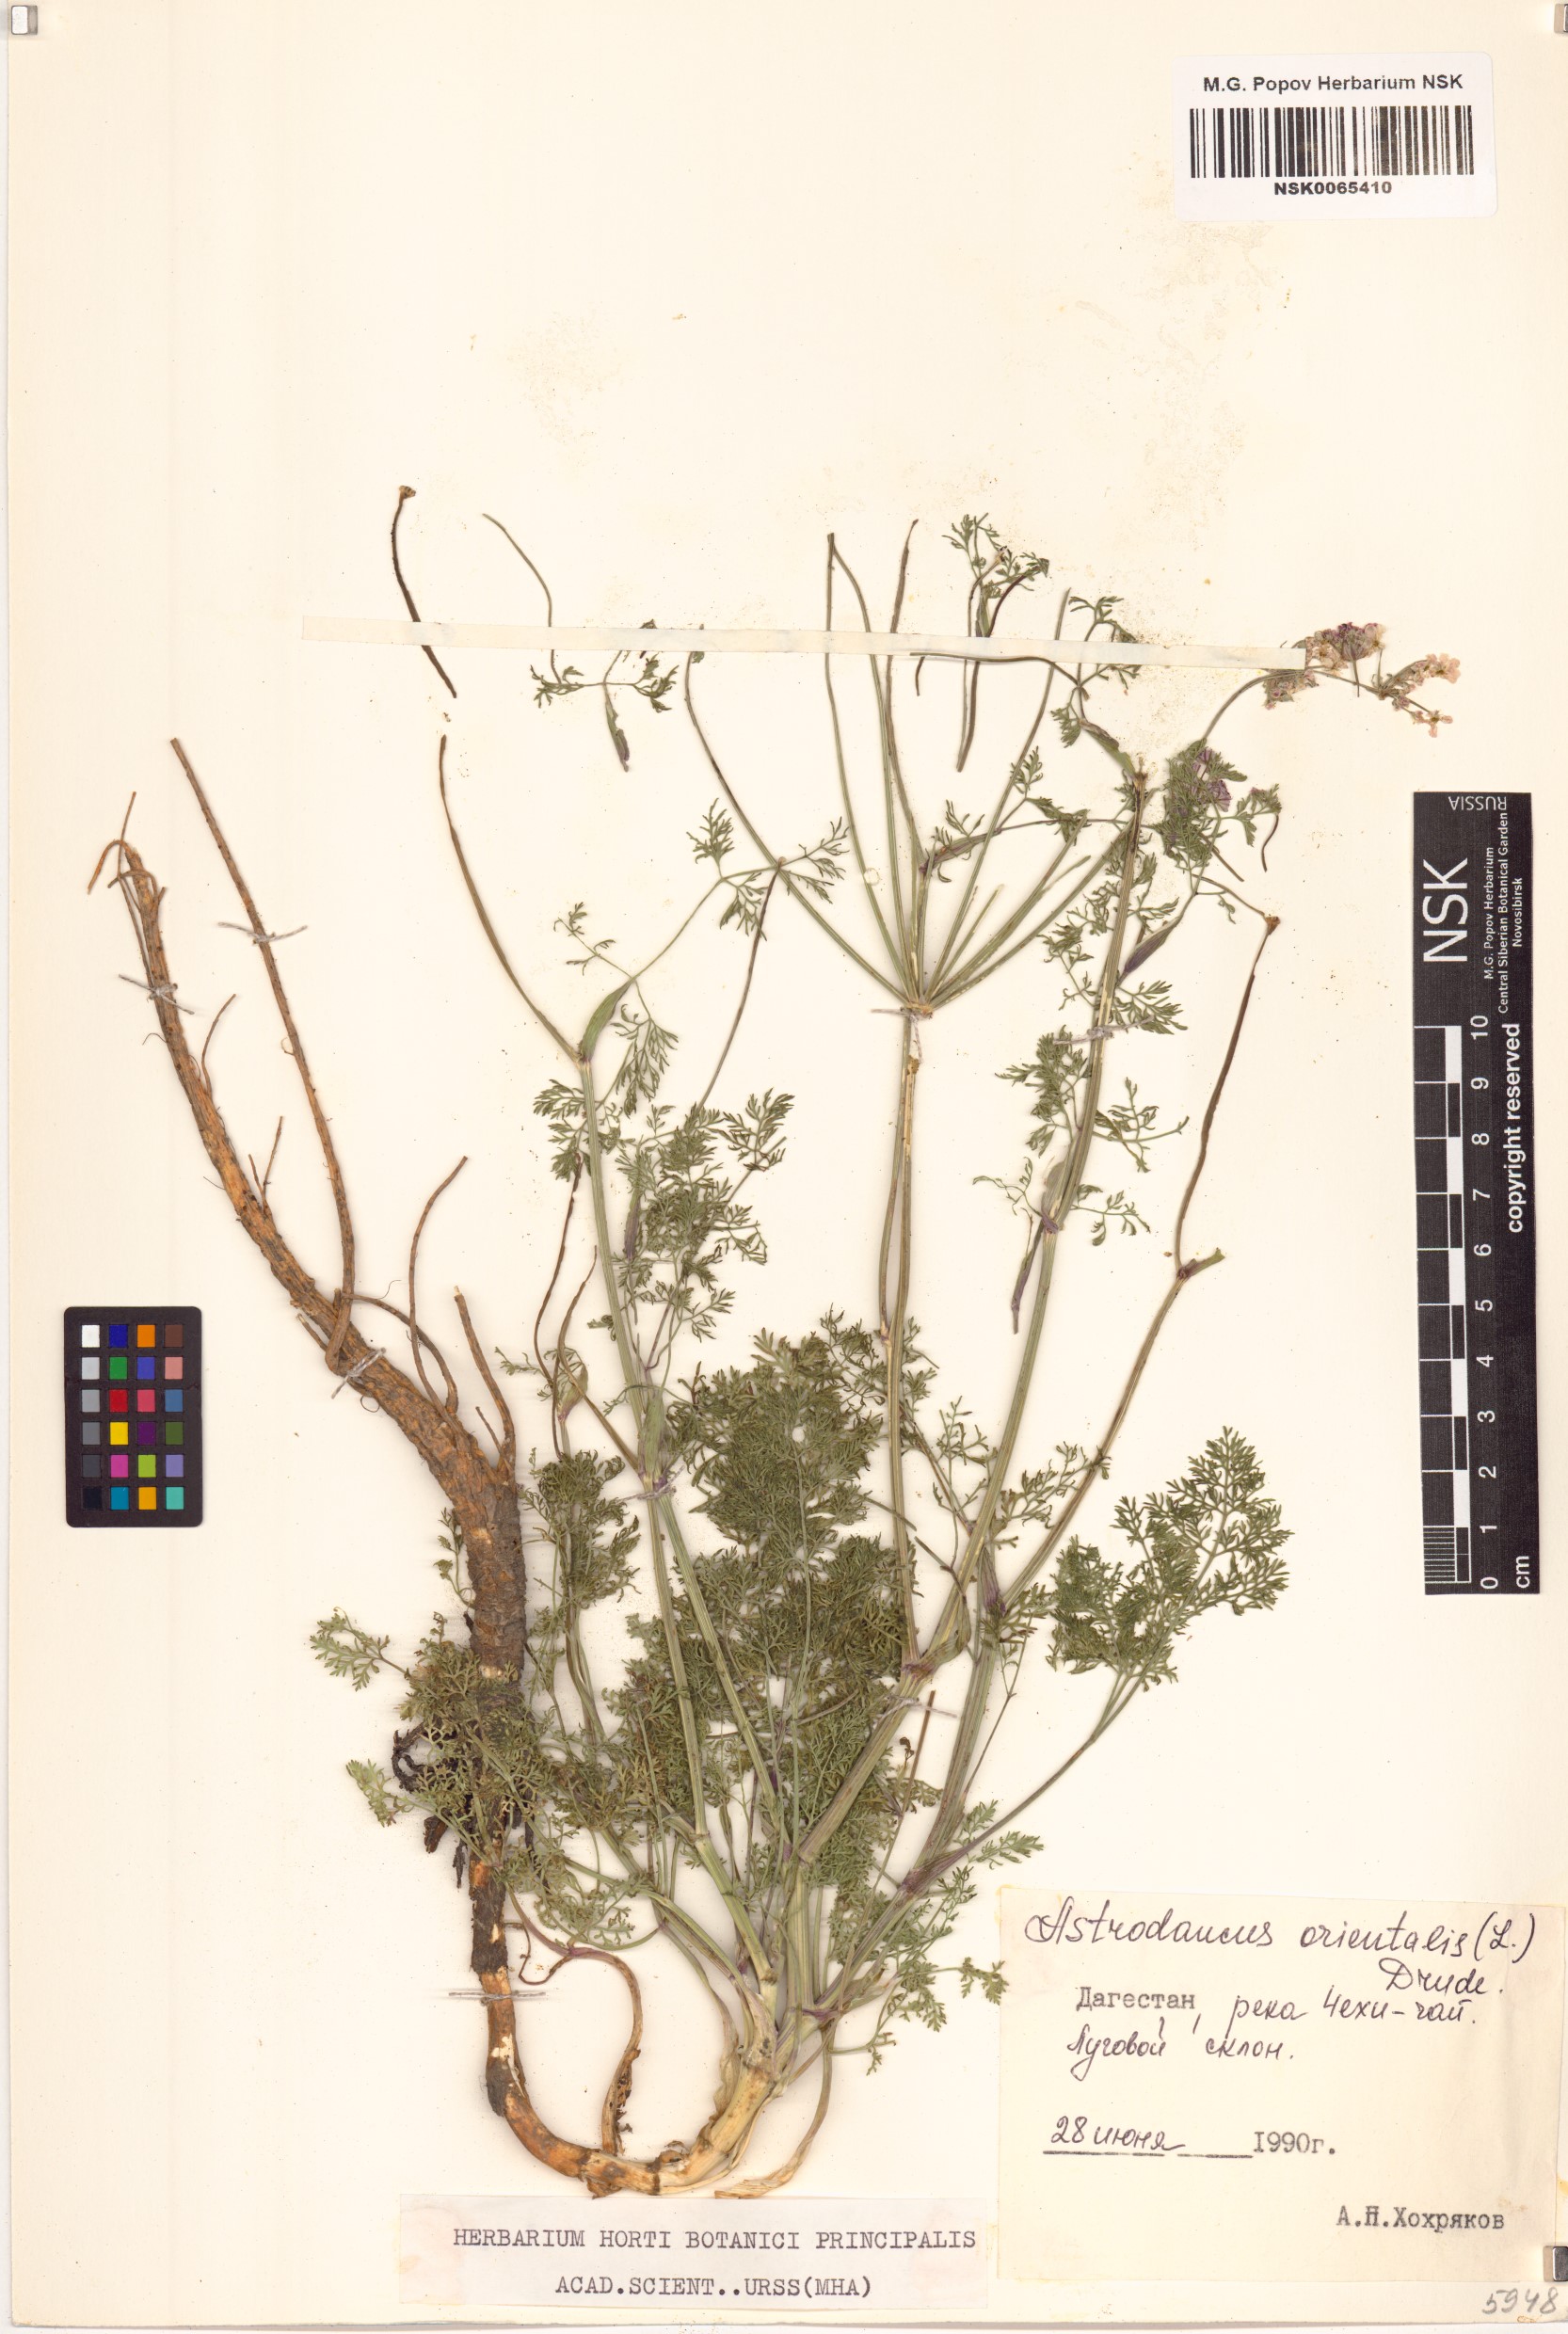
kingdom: Plantae
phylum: Tracheophyta
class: Magnoliopsida
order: Apiales
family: Apiaceae
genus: Astrodaucus
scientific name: Astrodaucus orientalis
